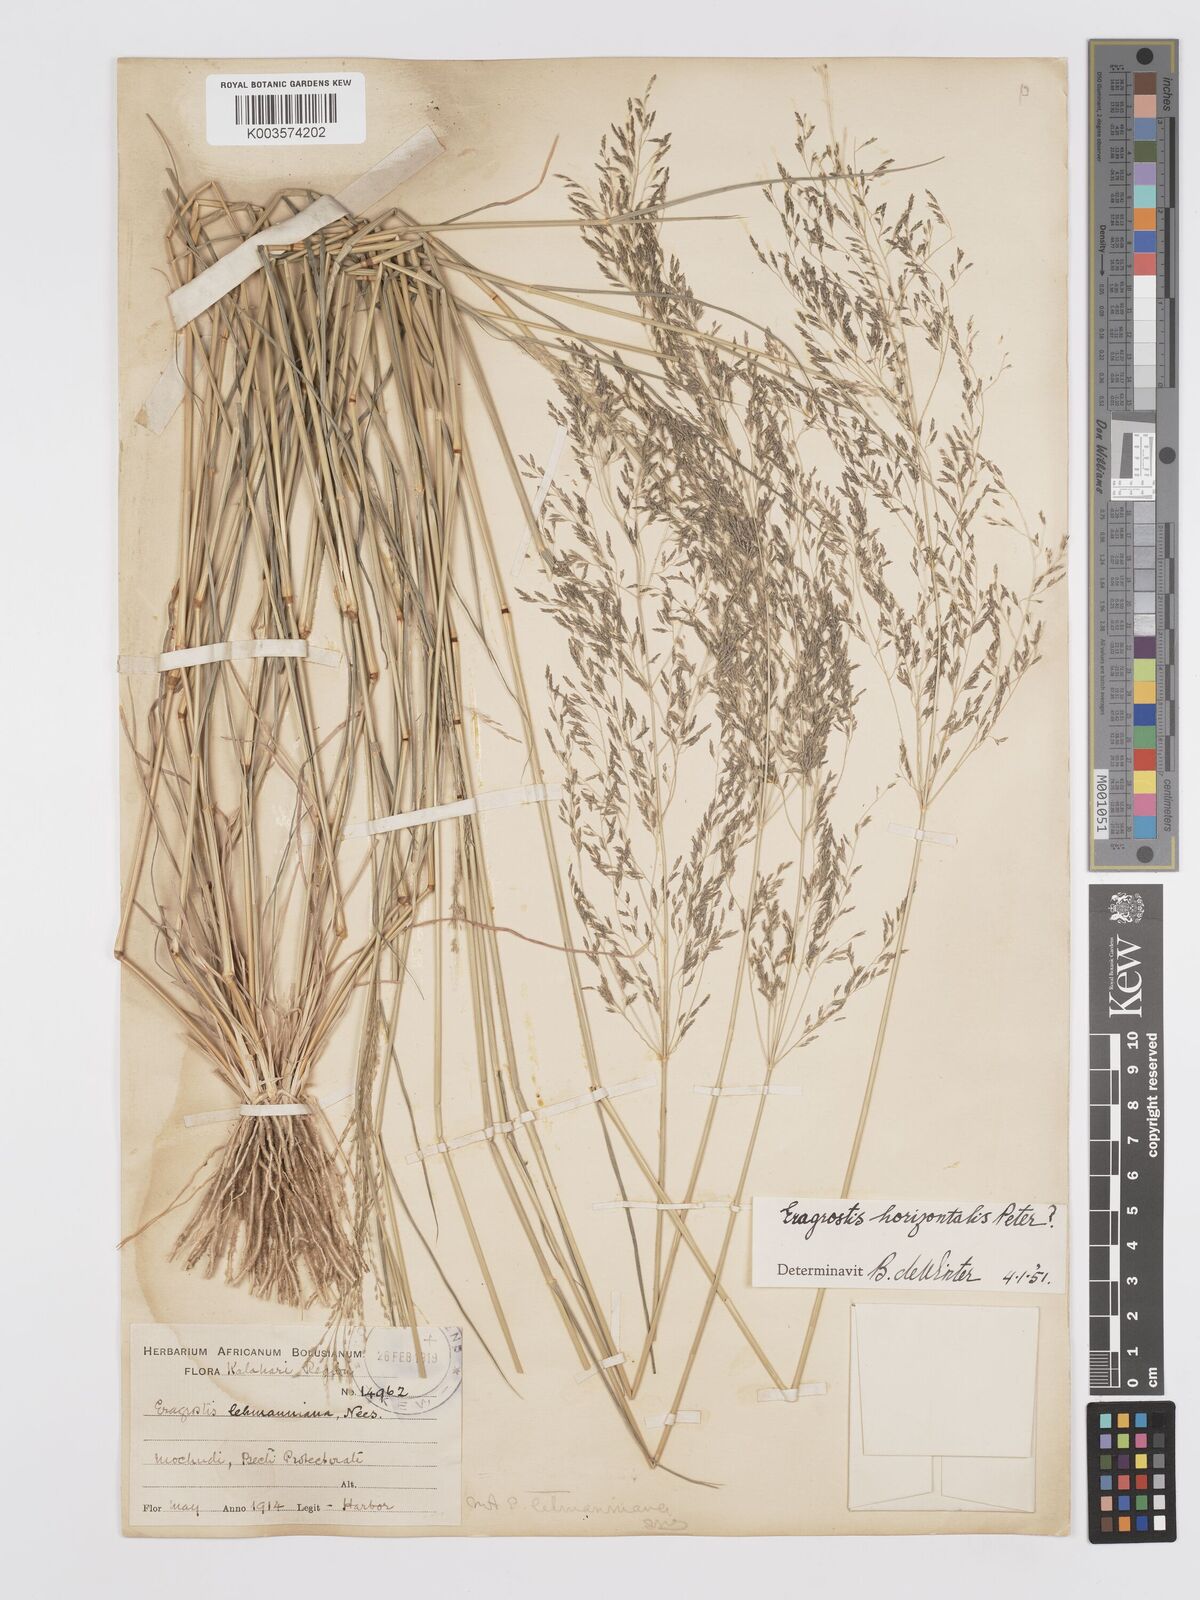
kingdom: Plantae
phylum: Tracheophyta
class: Liliopsida
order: Poales
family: Poaceae
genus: Eragrostis
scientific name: Eragrostis cylindriflora
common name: Cylinderflower lovegrass
